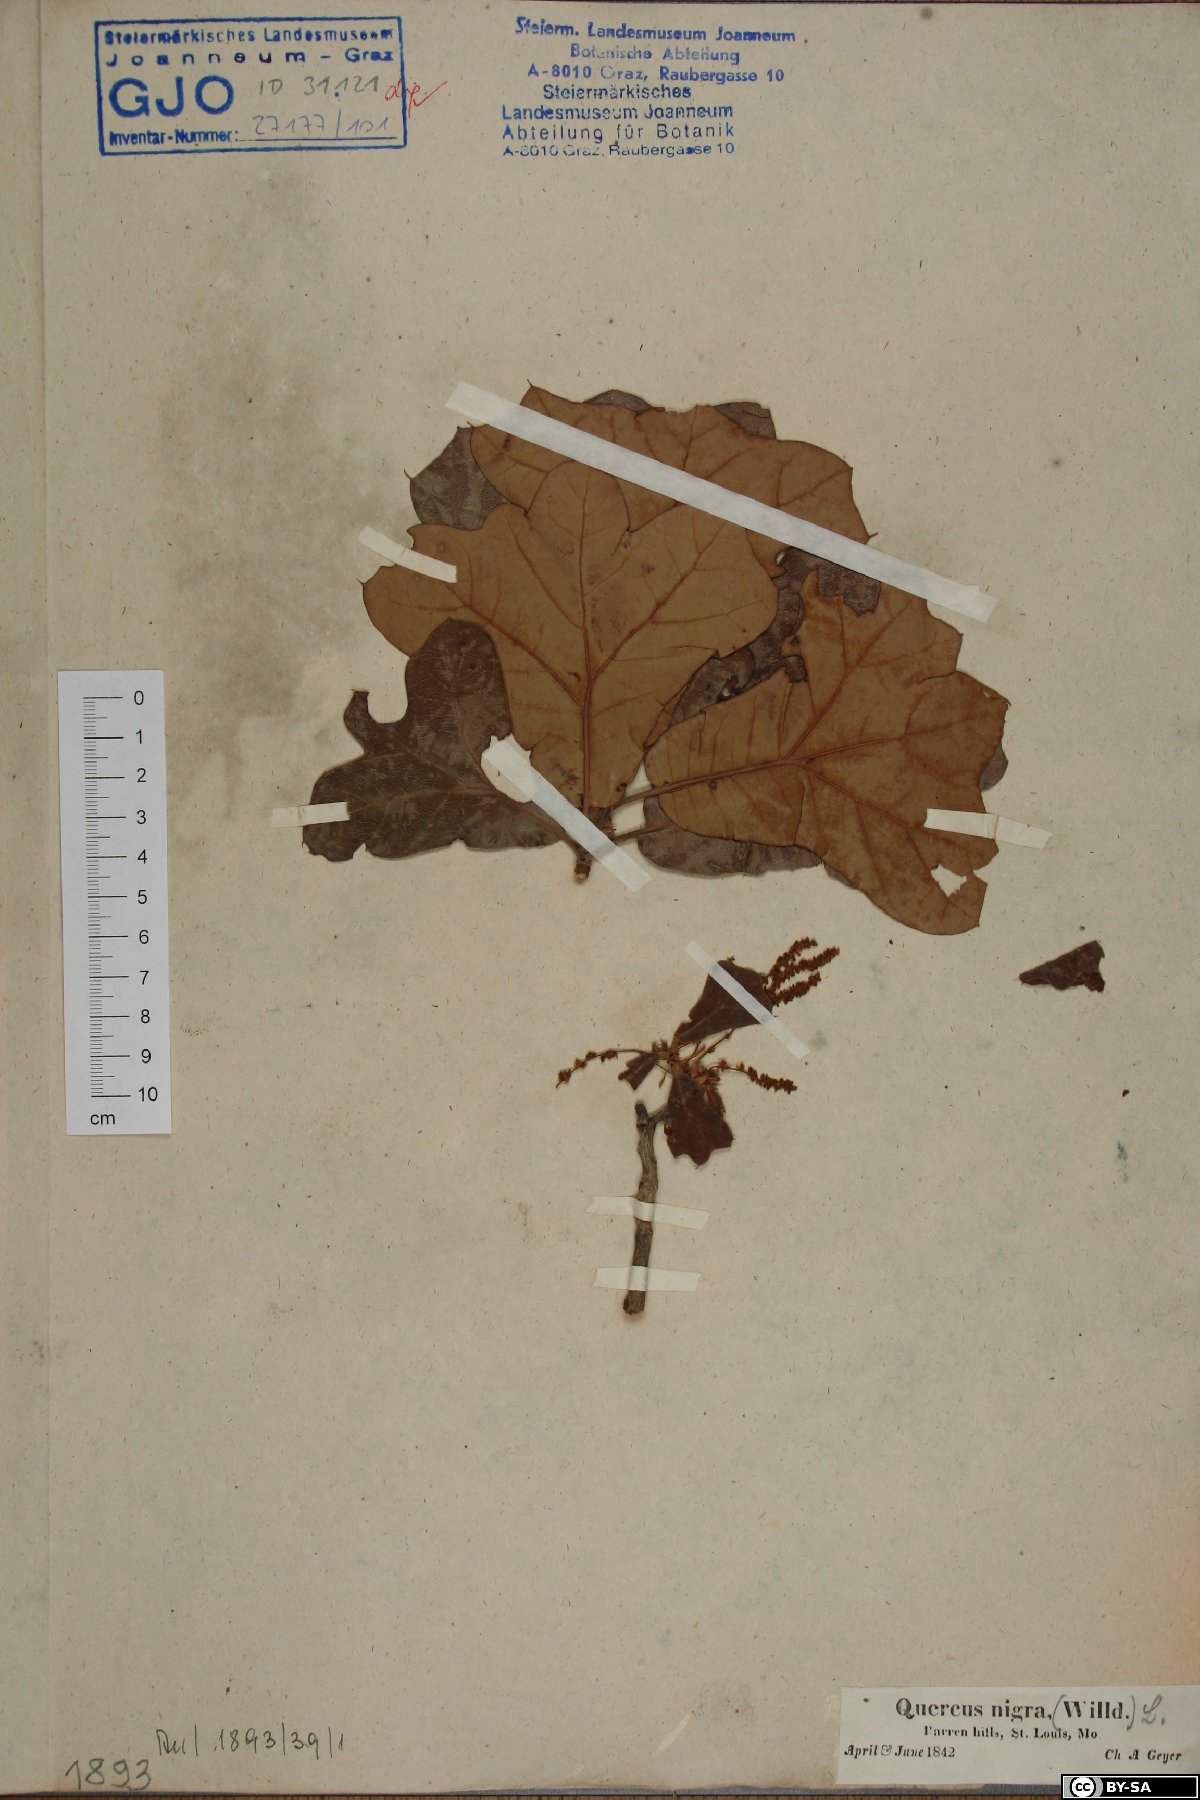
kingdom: Plantae
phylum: Tracheophyta
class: Magnoliopsida
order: Fagales
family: Fagaceae
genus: Quercus
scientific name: Quercus nigra
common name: Water oak
